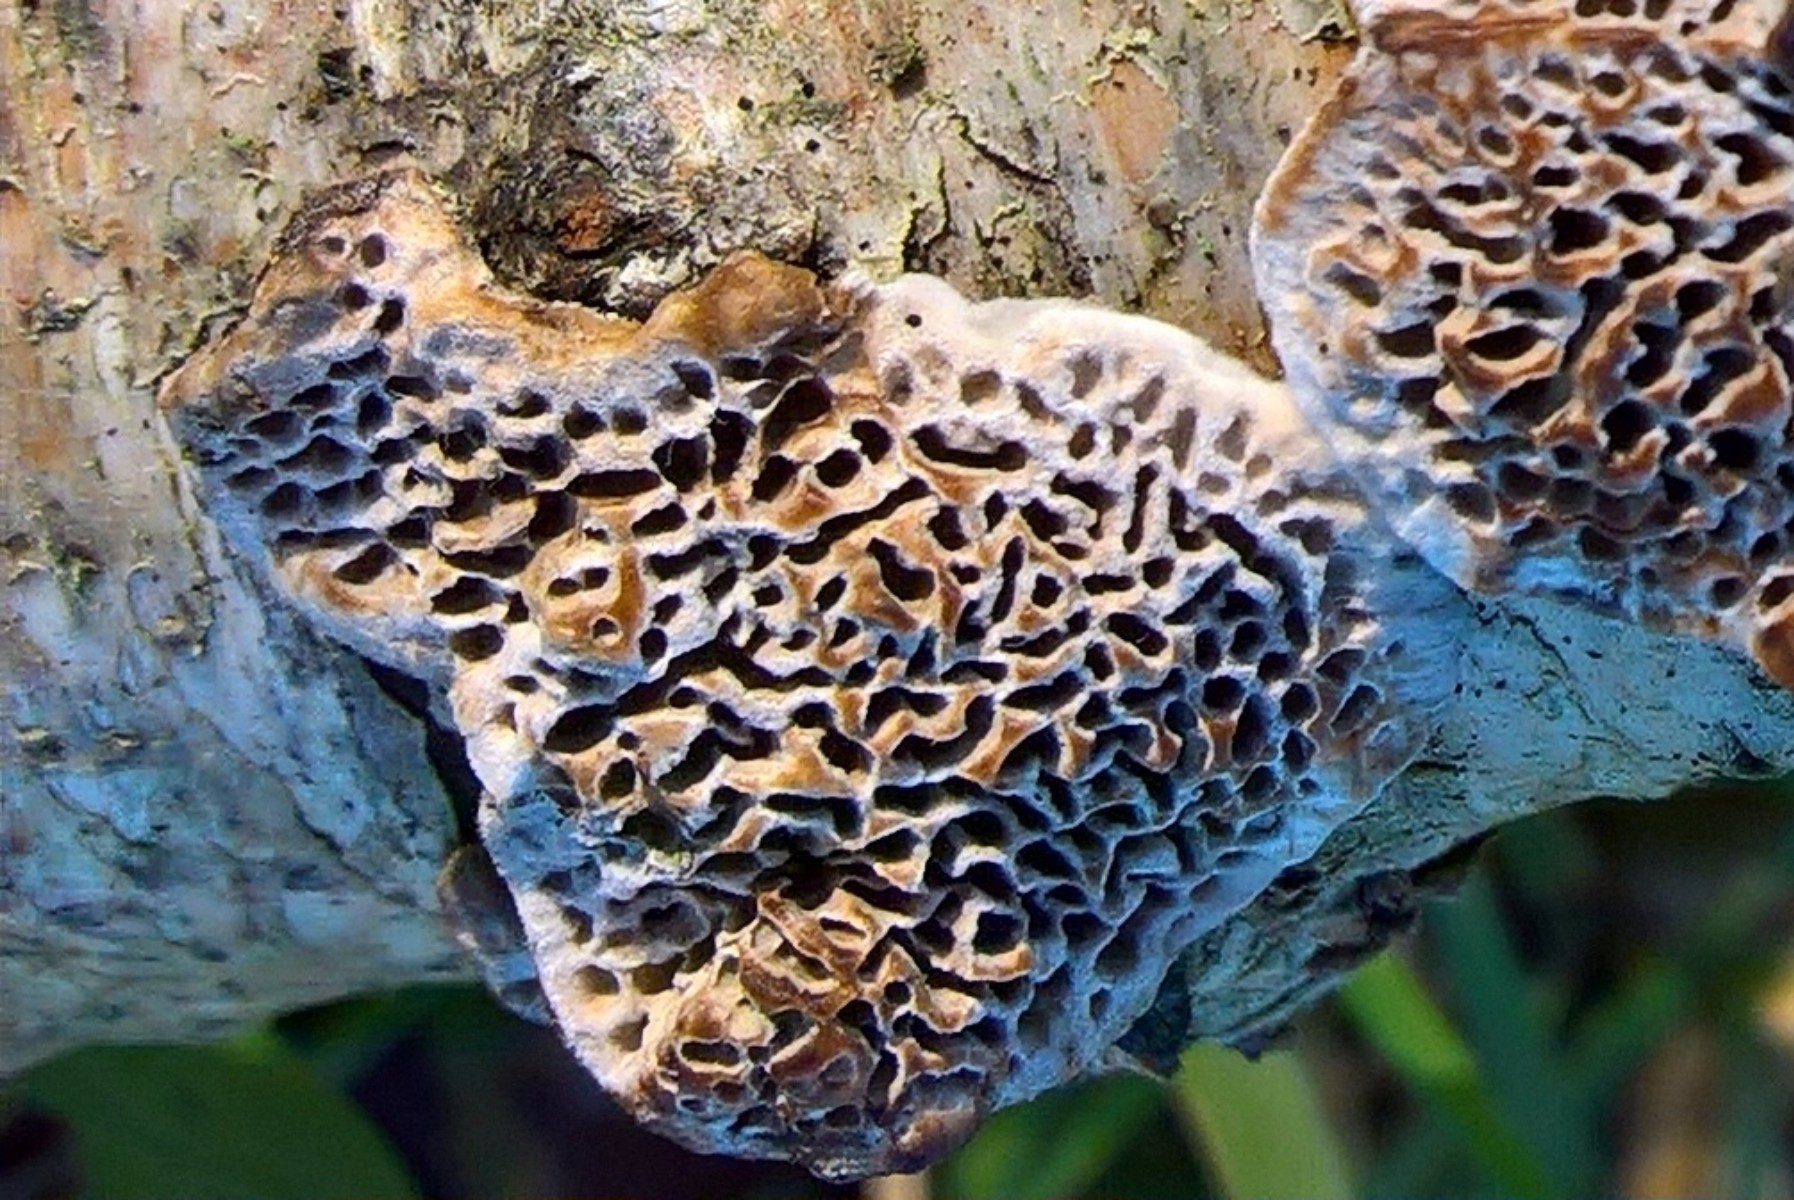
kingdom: Fungi
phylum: Basidiomycota
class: Agaricomycetes
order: Polyporales
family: Polyporaceae
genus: Podofomes
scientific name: Podofomes mollis
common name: blød begporesvamp
